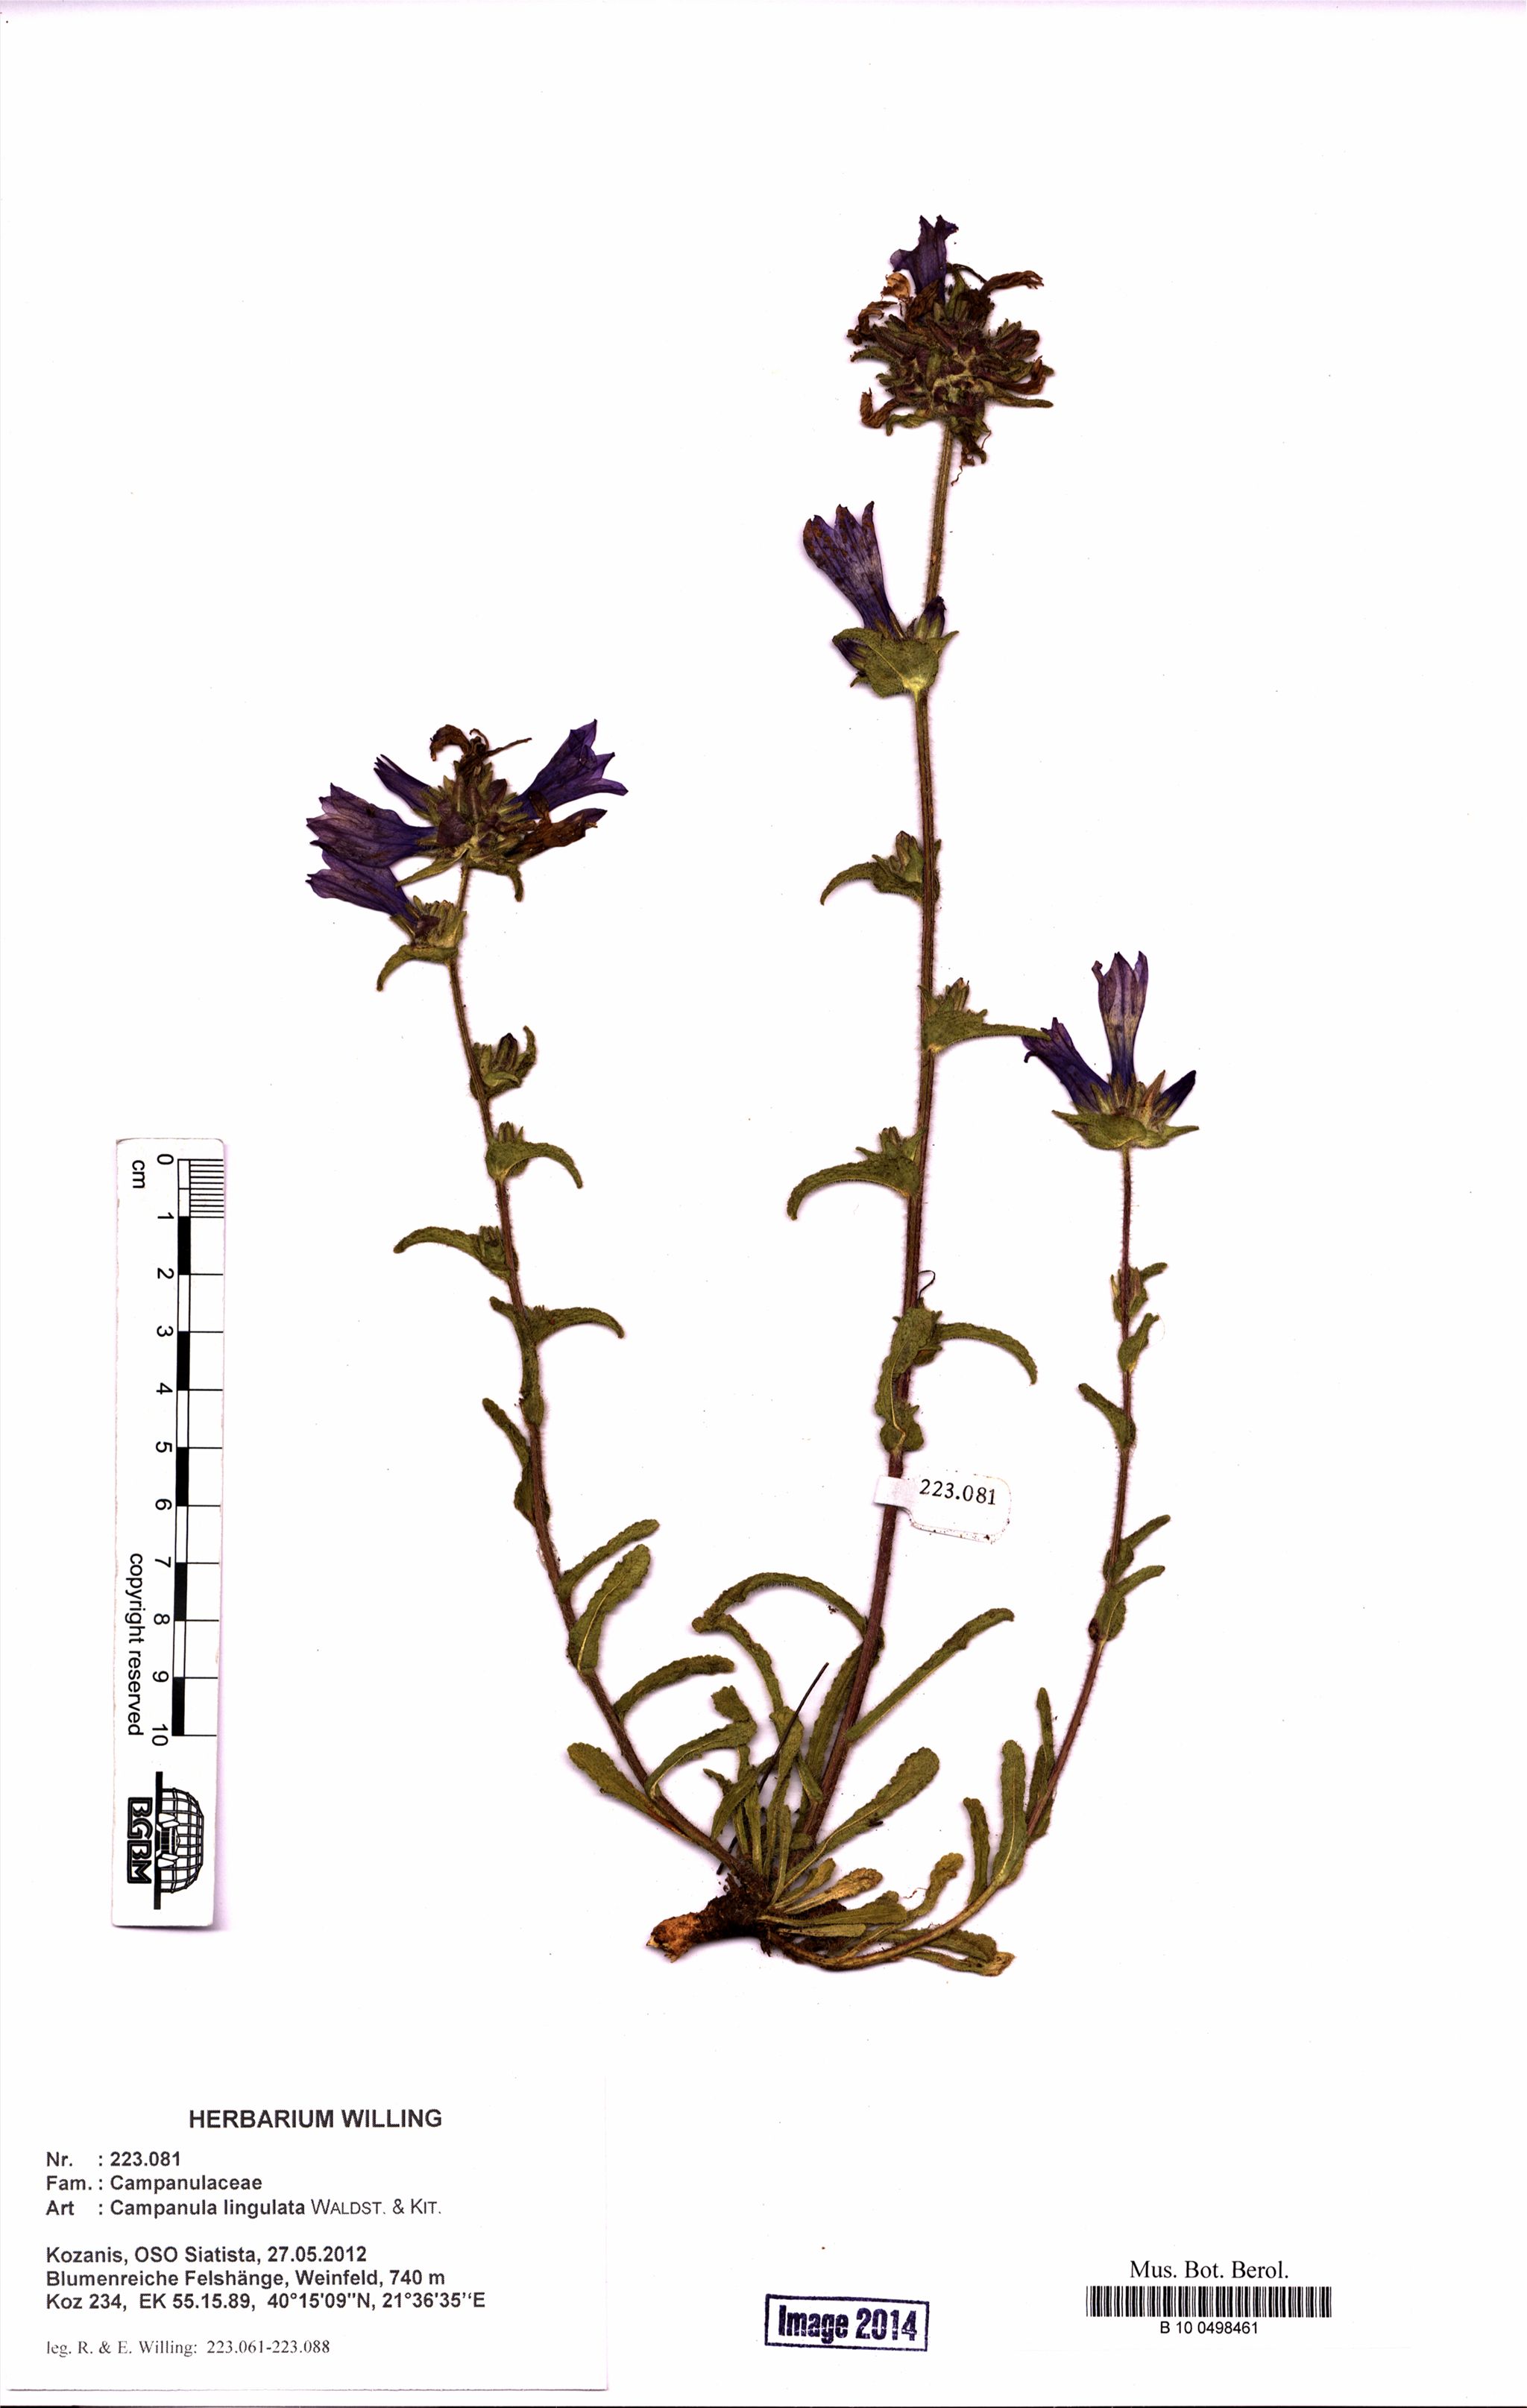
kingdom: Plantae
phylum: Tracheophyta
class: Magnoliopsida
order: Asterales
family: Campanulaceae
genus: Campanula
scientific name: Campanula lingulata
